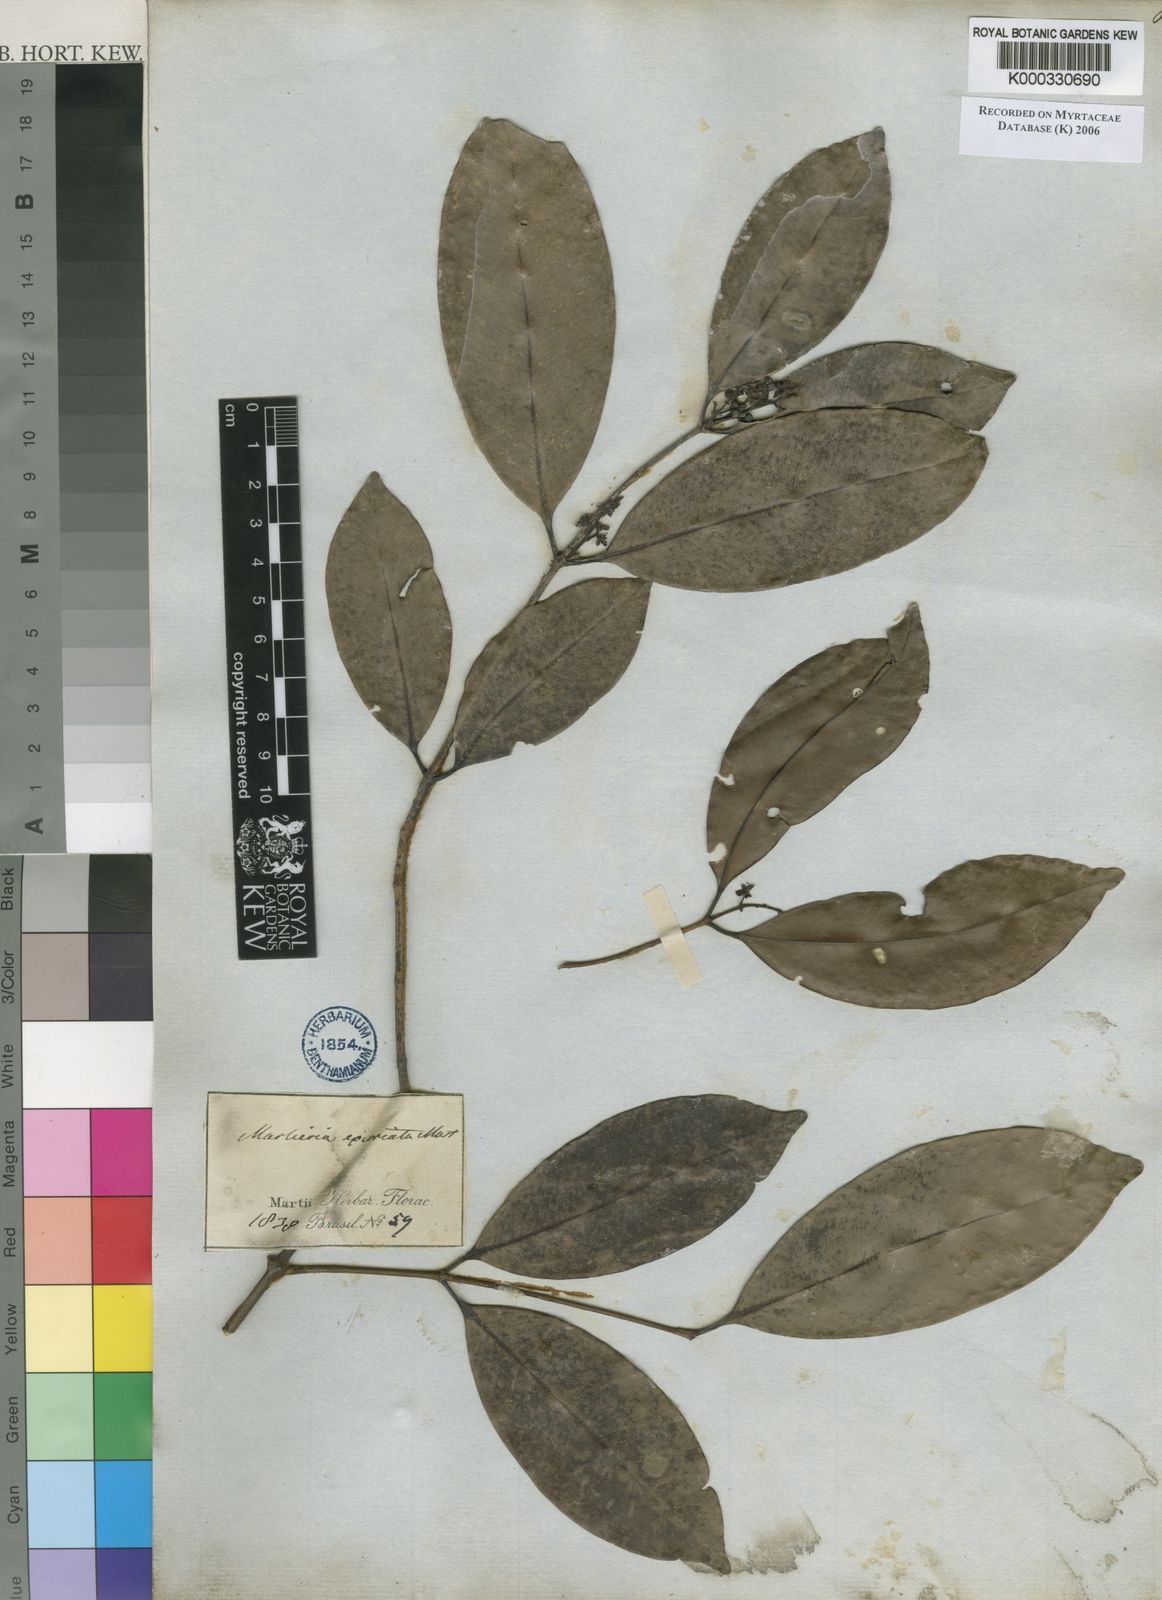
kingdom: Plantae
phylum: Tracheophyta
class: Magnoliopsida
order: Myrtales
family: Myrtaceae
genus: Myrcia
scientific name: Myrcia excoriata
